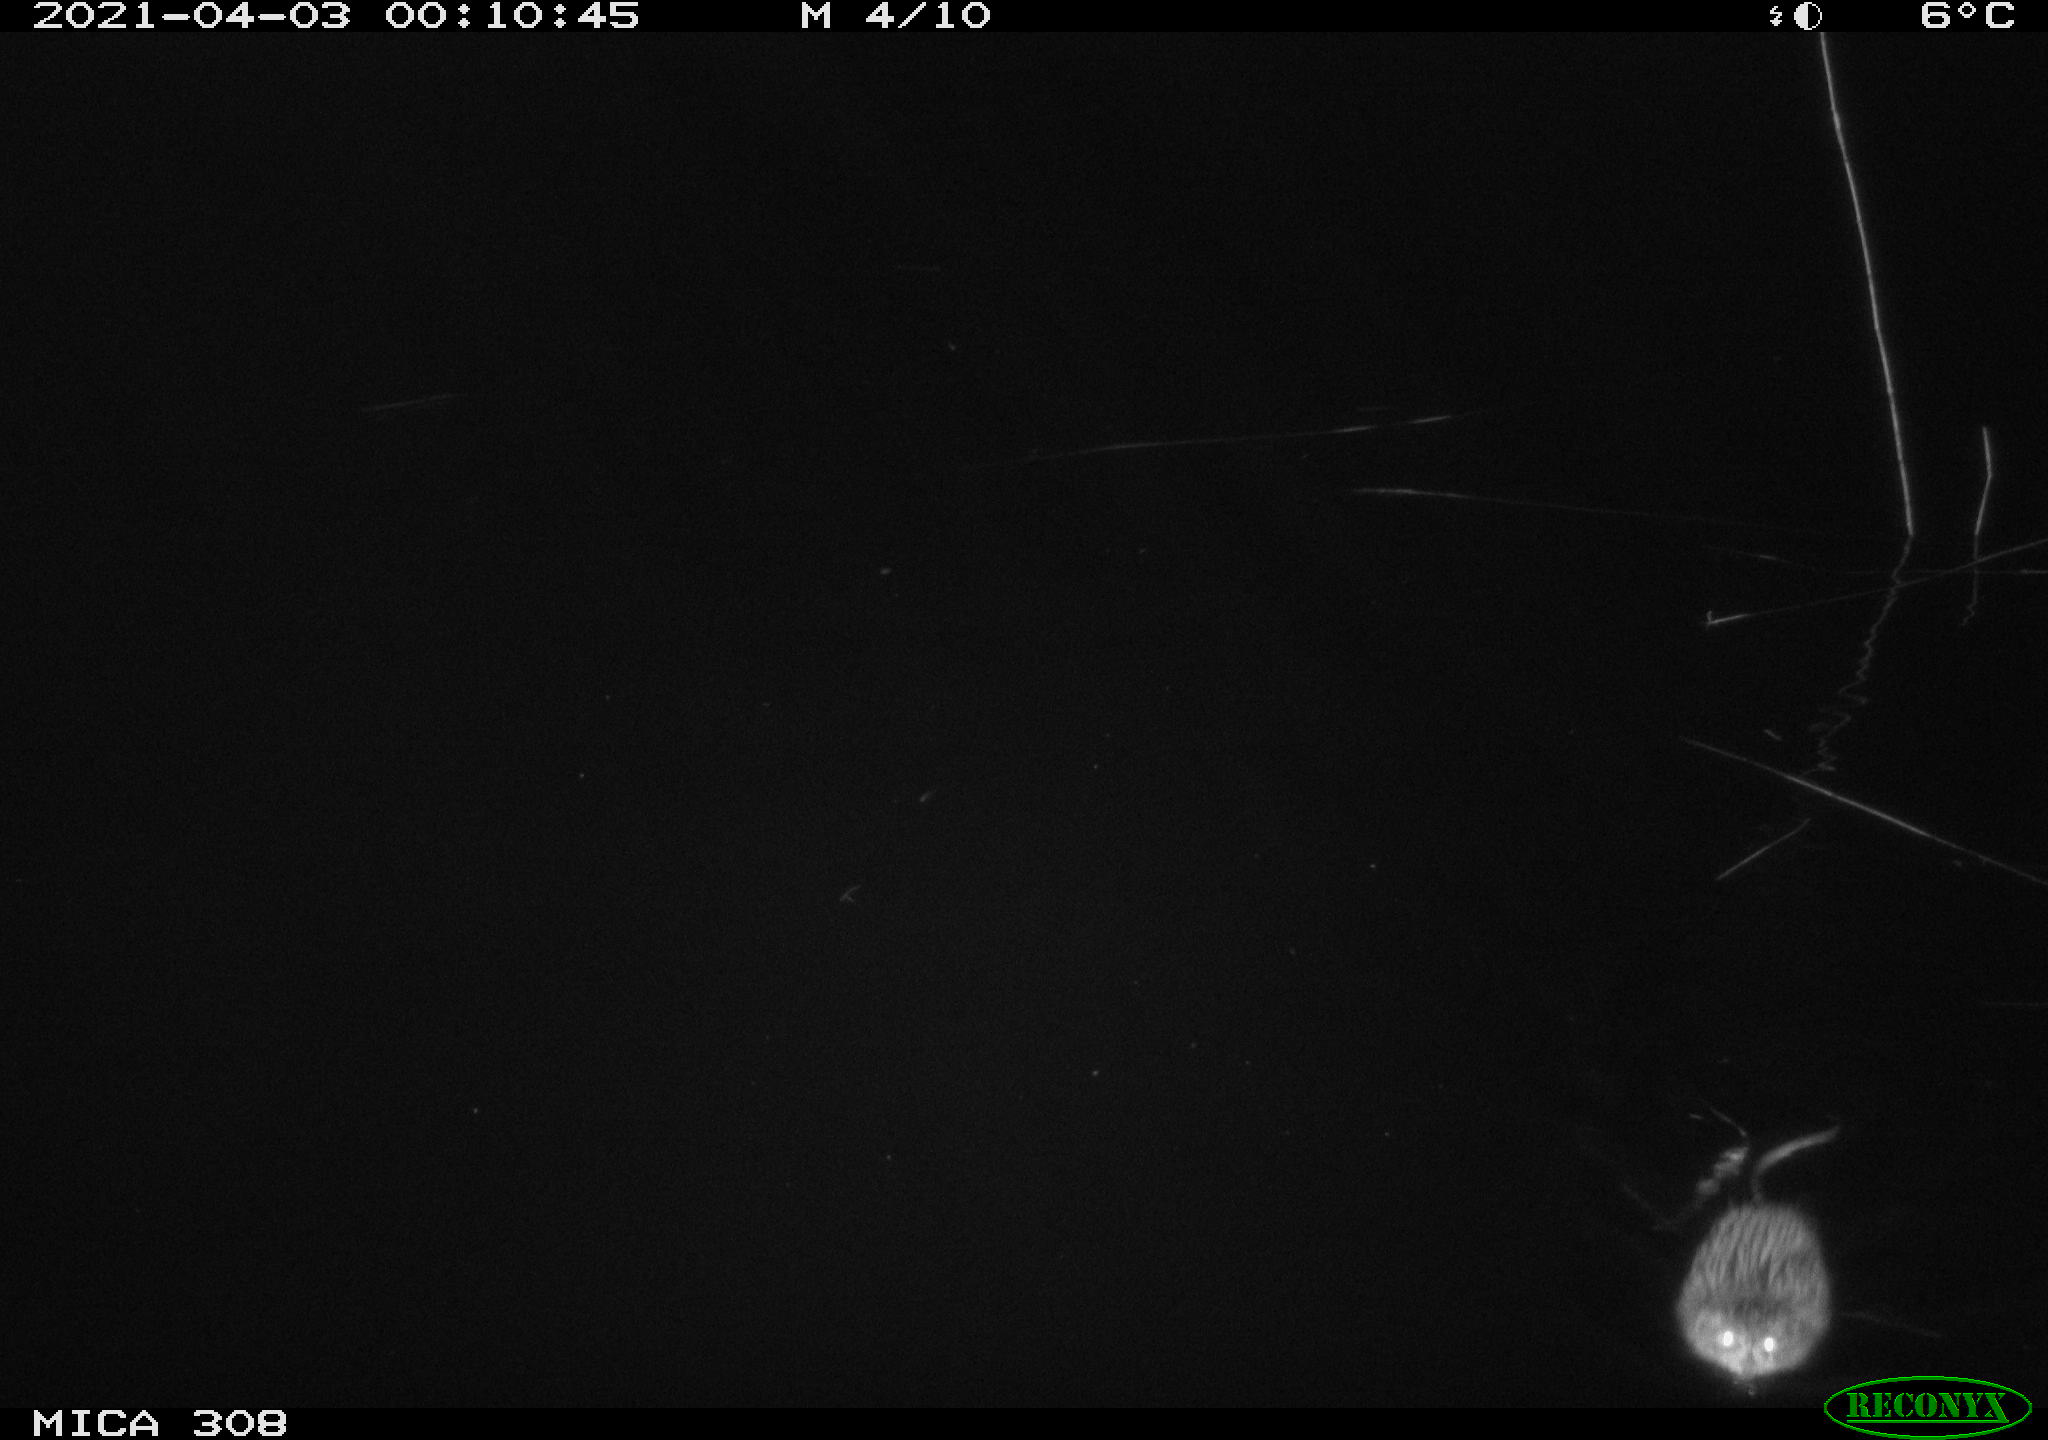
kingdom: Animalia
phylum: Chordata
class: Mammalia
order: Rodentia
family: Cricetidae
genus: Ondatra
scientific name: Ondatra zibethicus
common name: Muskrat
